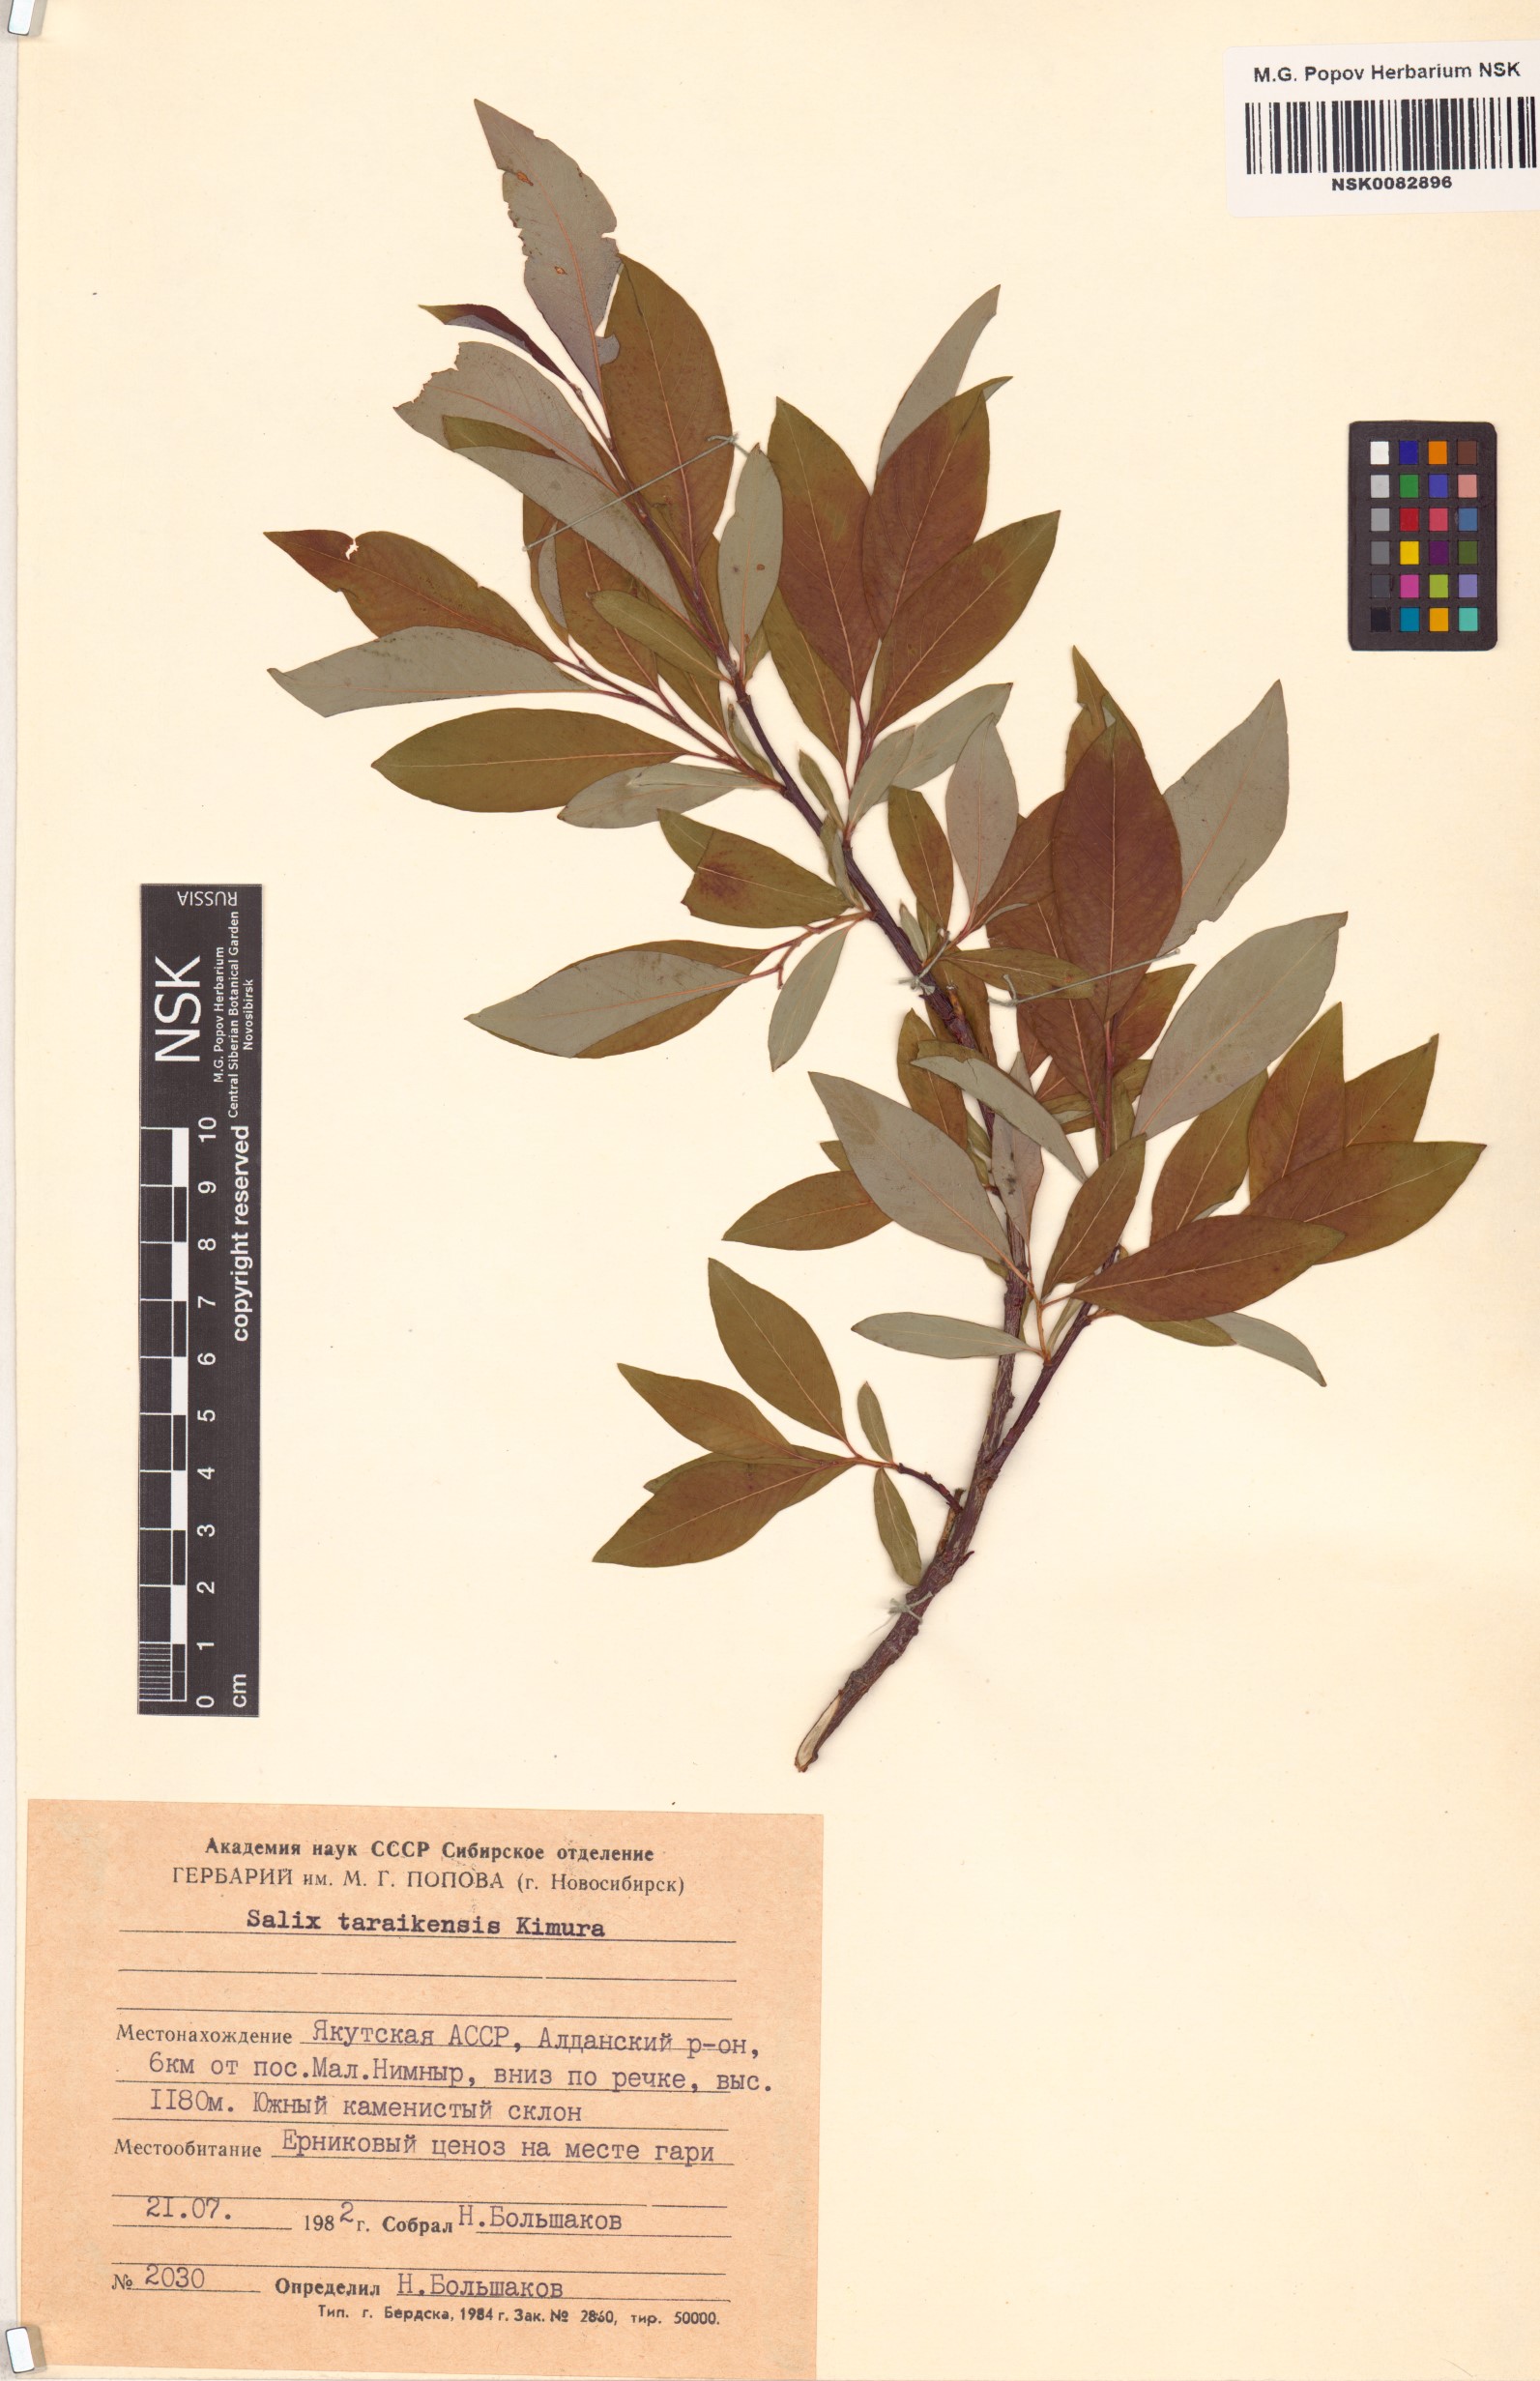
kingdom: Plantae
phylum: Tracheophyta
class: Magnoliopsida
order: Malpighiales
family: Salicaceae
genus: Salix
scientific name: Salix taraikensis
